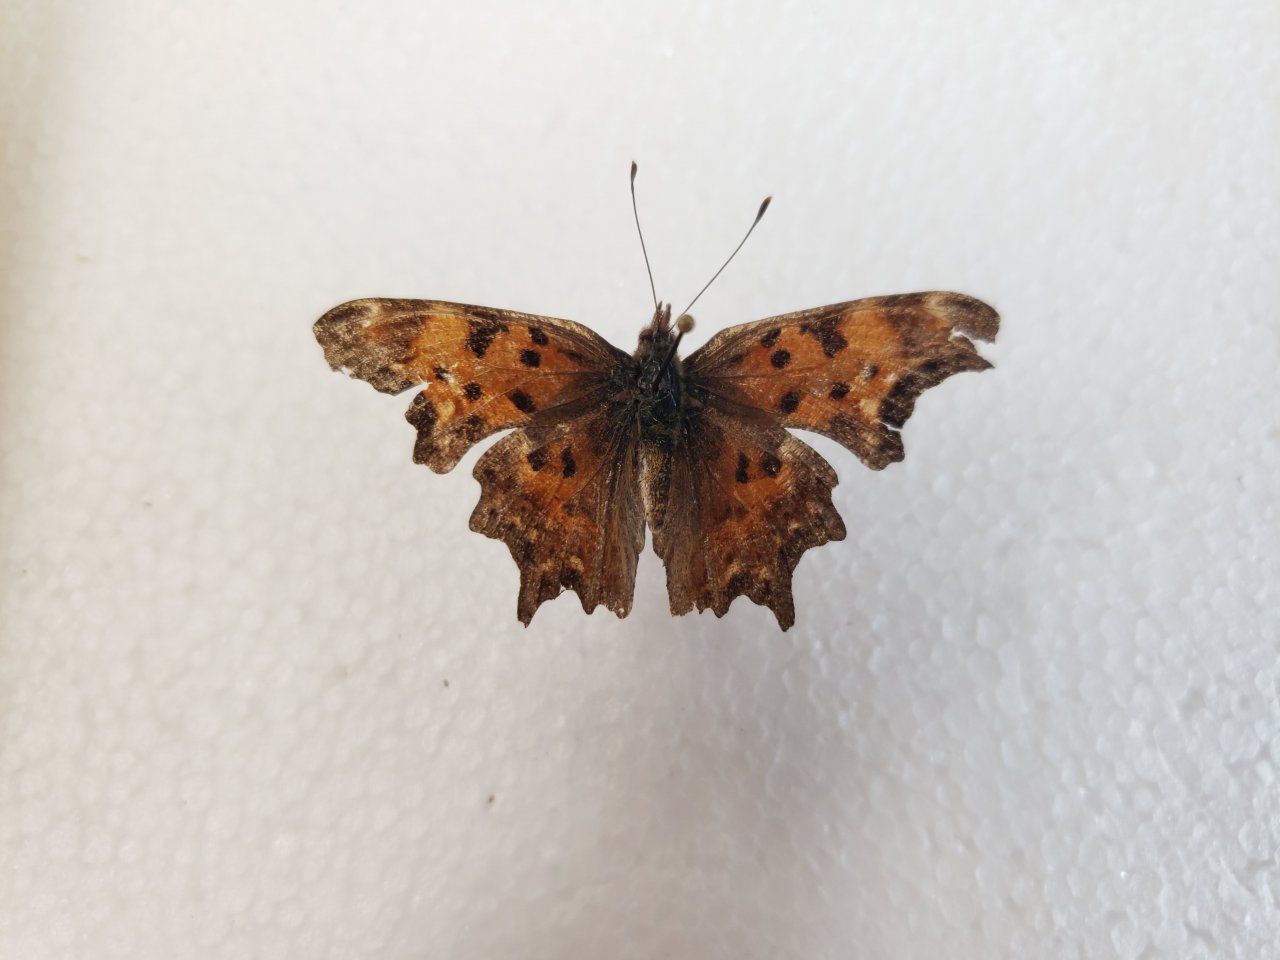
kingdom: Animalia
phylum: Arthropoda
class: Insecta
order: Lepidoptera
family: Nymphalidae
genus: Polygonia
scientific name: Polygonia gracilis
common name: Hoary Comma
